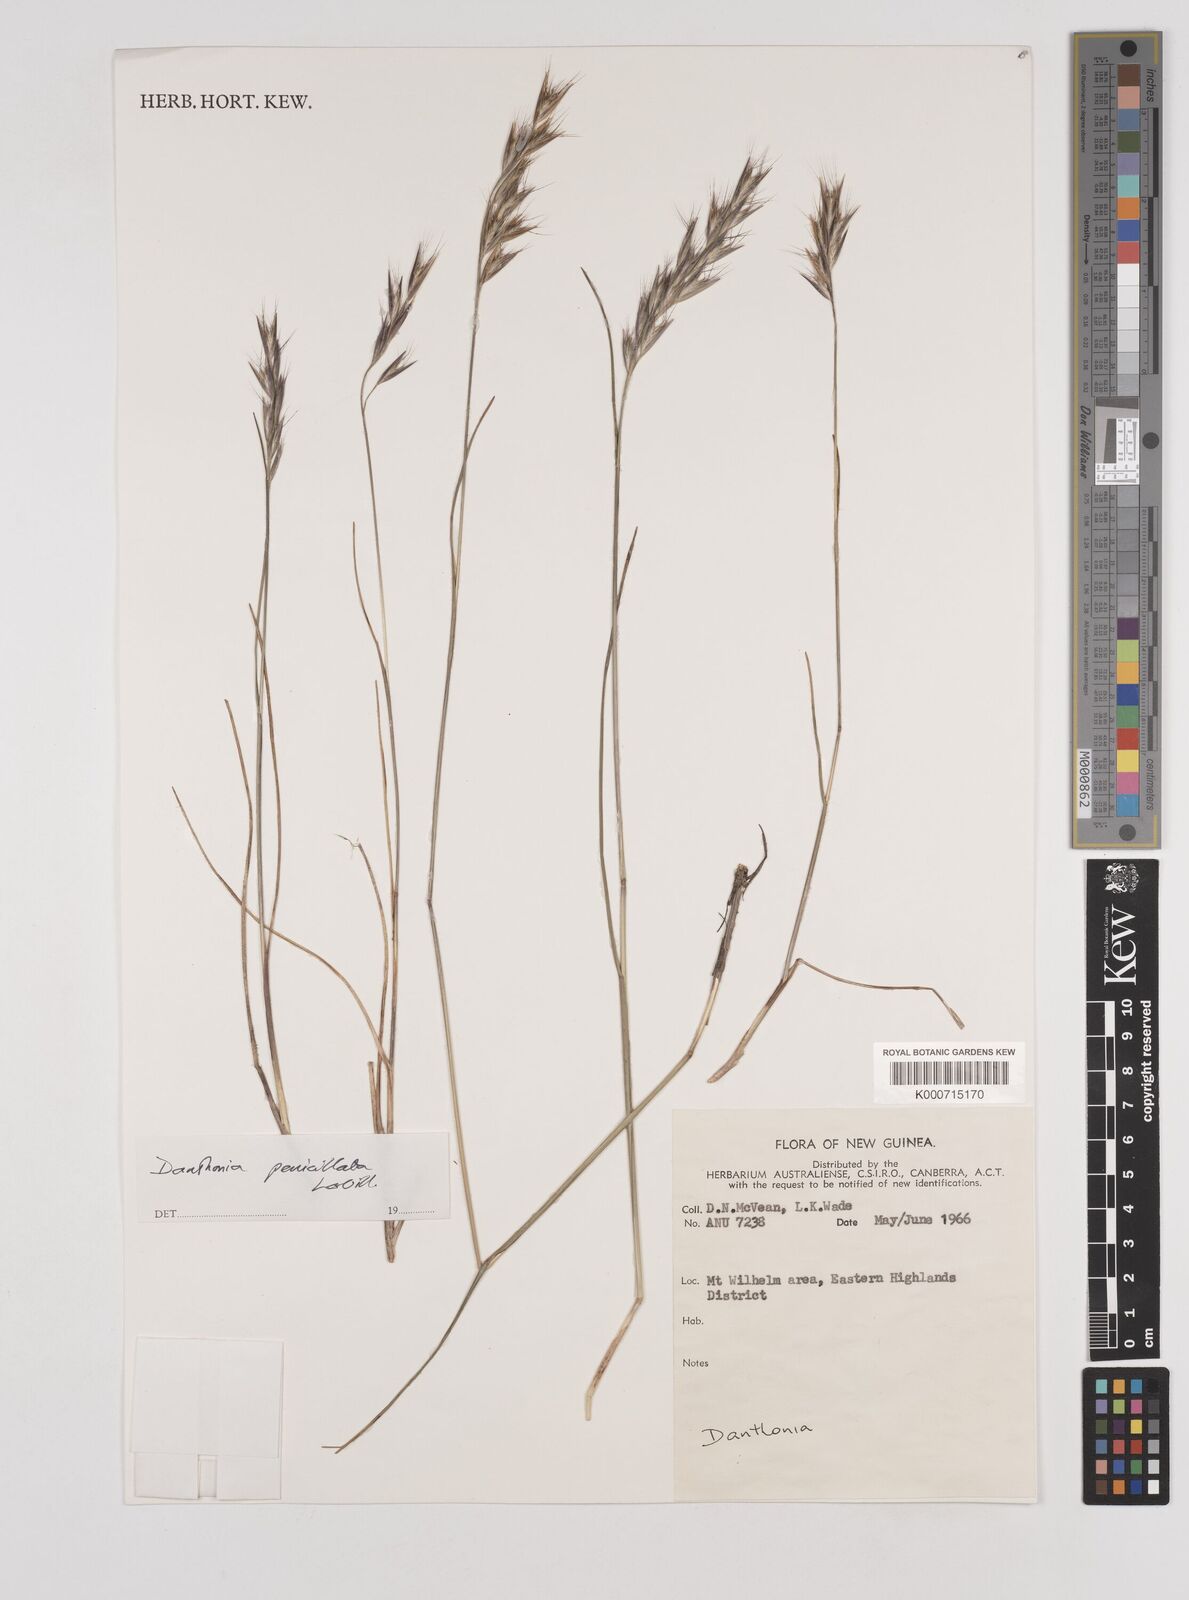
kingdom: Plantae
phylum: Tracheophyta
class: Liliopsida
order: Poales
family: Poaceae
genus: Rytidosperma
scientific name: Rytidosperma penicillatum
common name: Hairy wallaby grass
